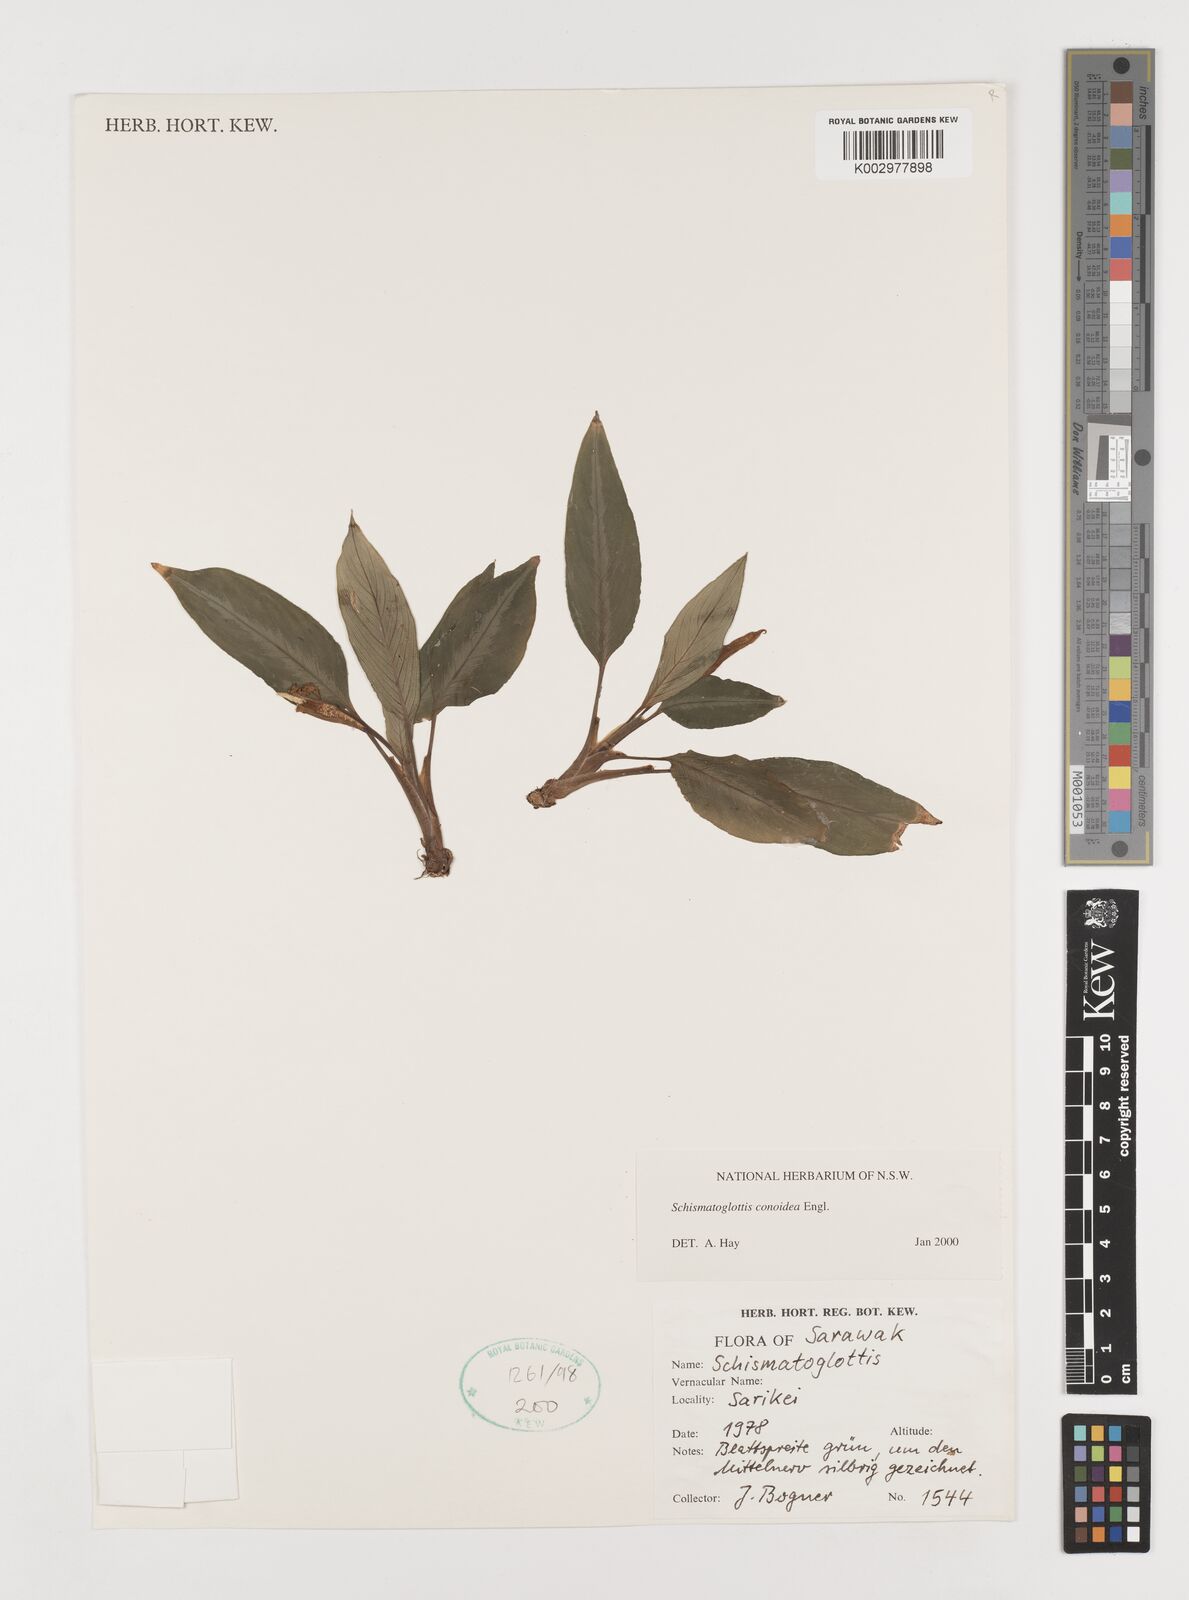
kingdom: Plantae
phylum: Tracheophyta
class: Liliopsida
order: Alismatales
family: Araceae
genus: Schismatoglottis
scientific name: Schismatoglottis conoidea
